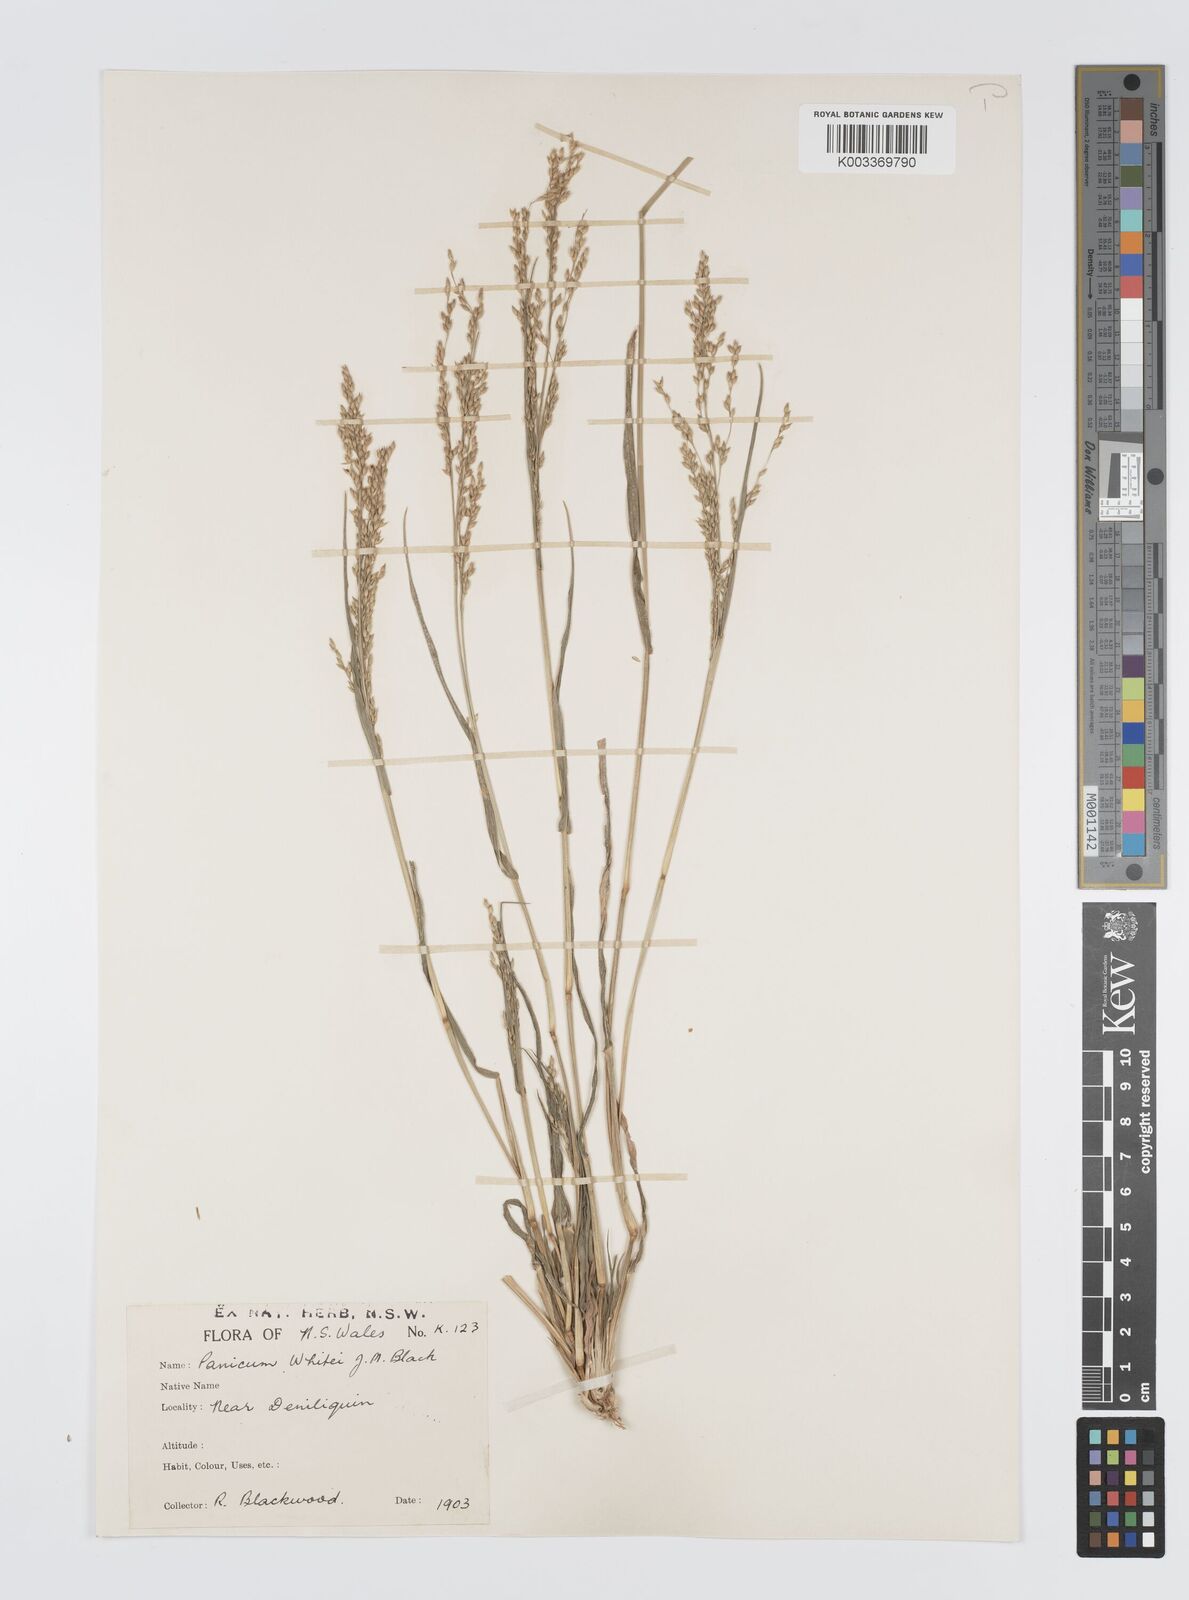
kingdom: Plantae
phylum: Tracheophyta
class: Liliopsida
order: Poales
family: Poaceae
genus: Panicum
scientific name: Panicum laevinode
